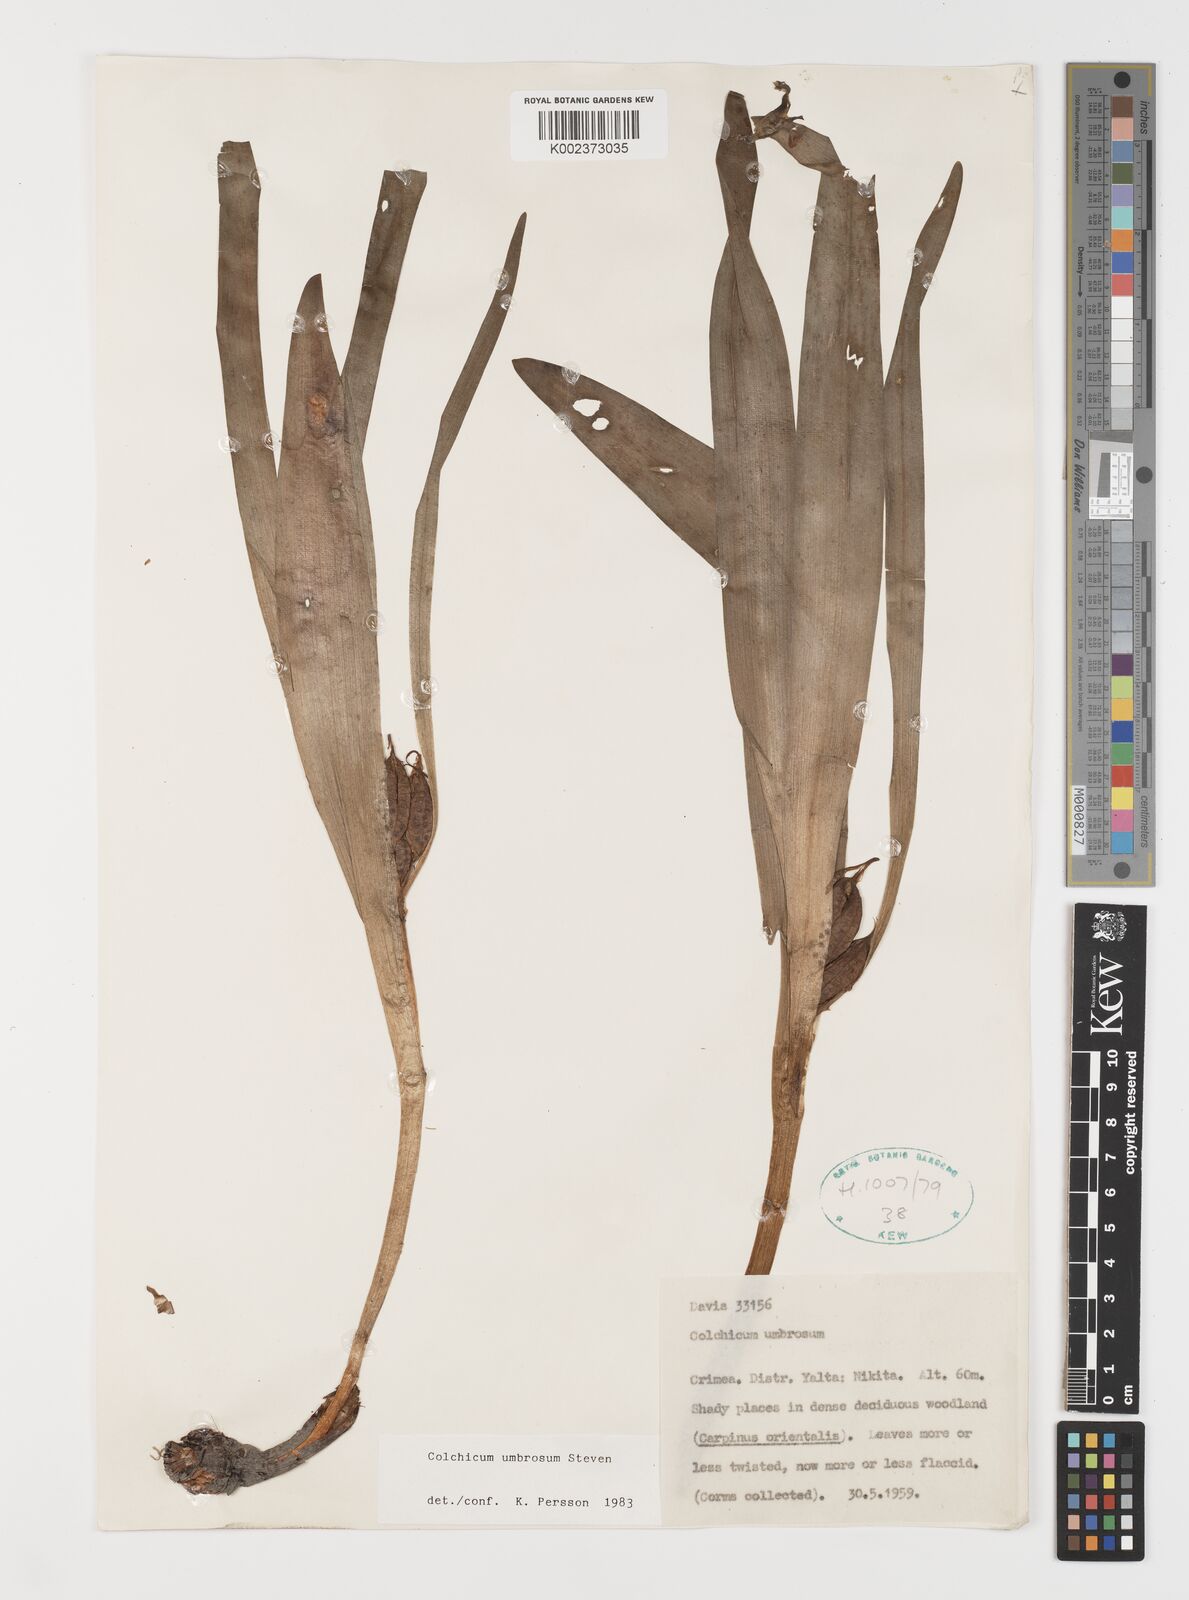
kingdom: Plantae
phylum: Tracheophyta
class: Liliopsida
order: Liliales
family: Colchicaceae
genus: Colchicum
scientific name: Colchicum umbrosum
